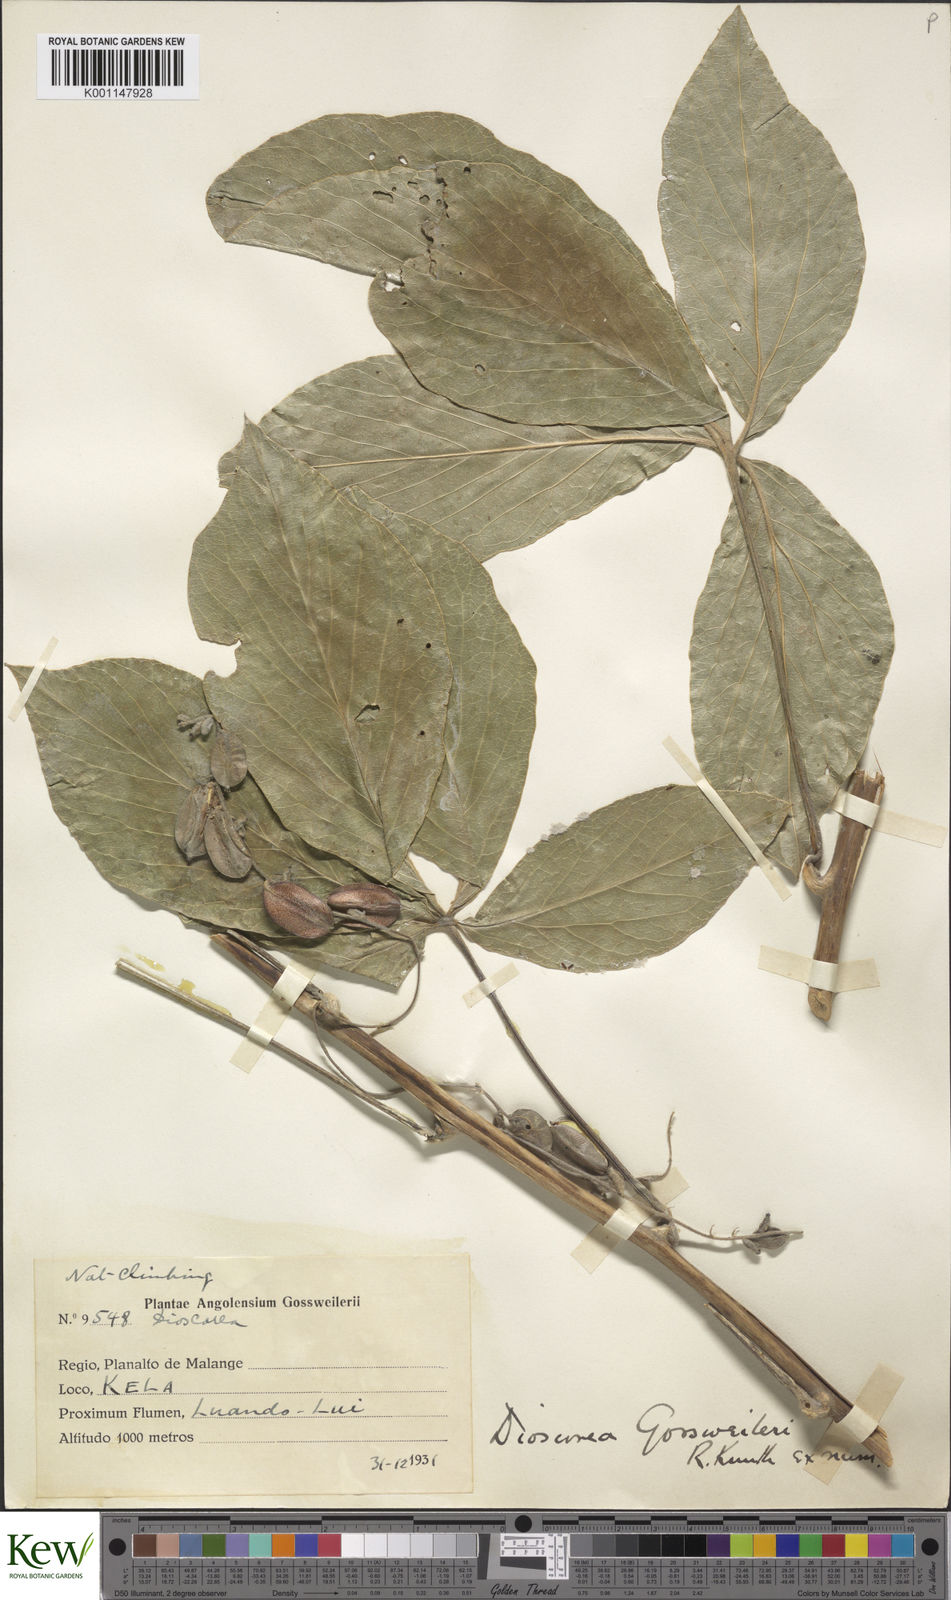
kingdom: Plantae
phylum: Tracheophyta
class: Liliopsida
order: Dioscoreales
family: Dioscoreaceae
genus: Dioscorea
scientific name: Dioscorea quartiniana
